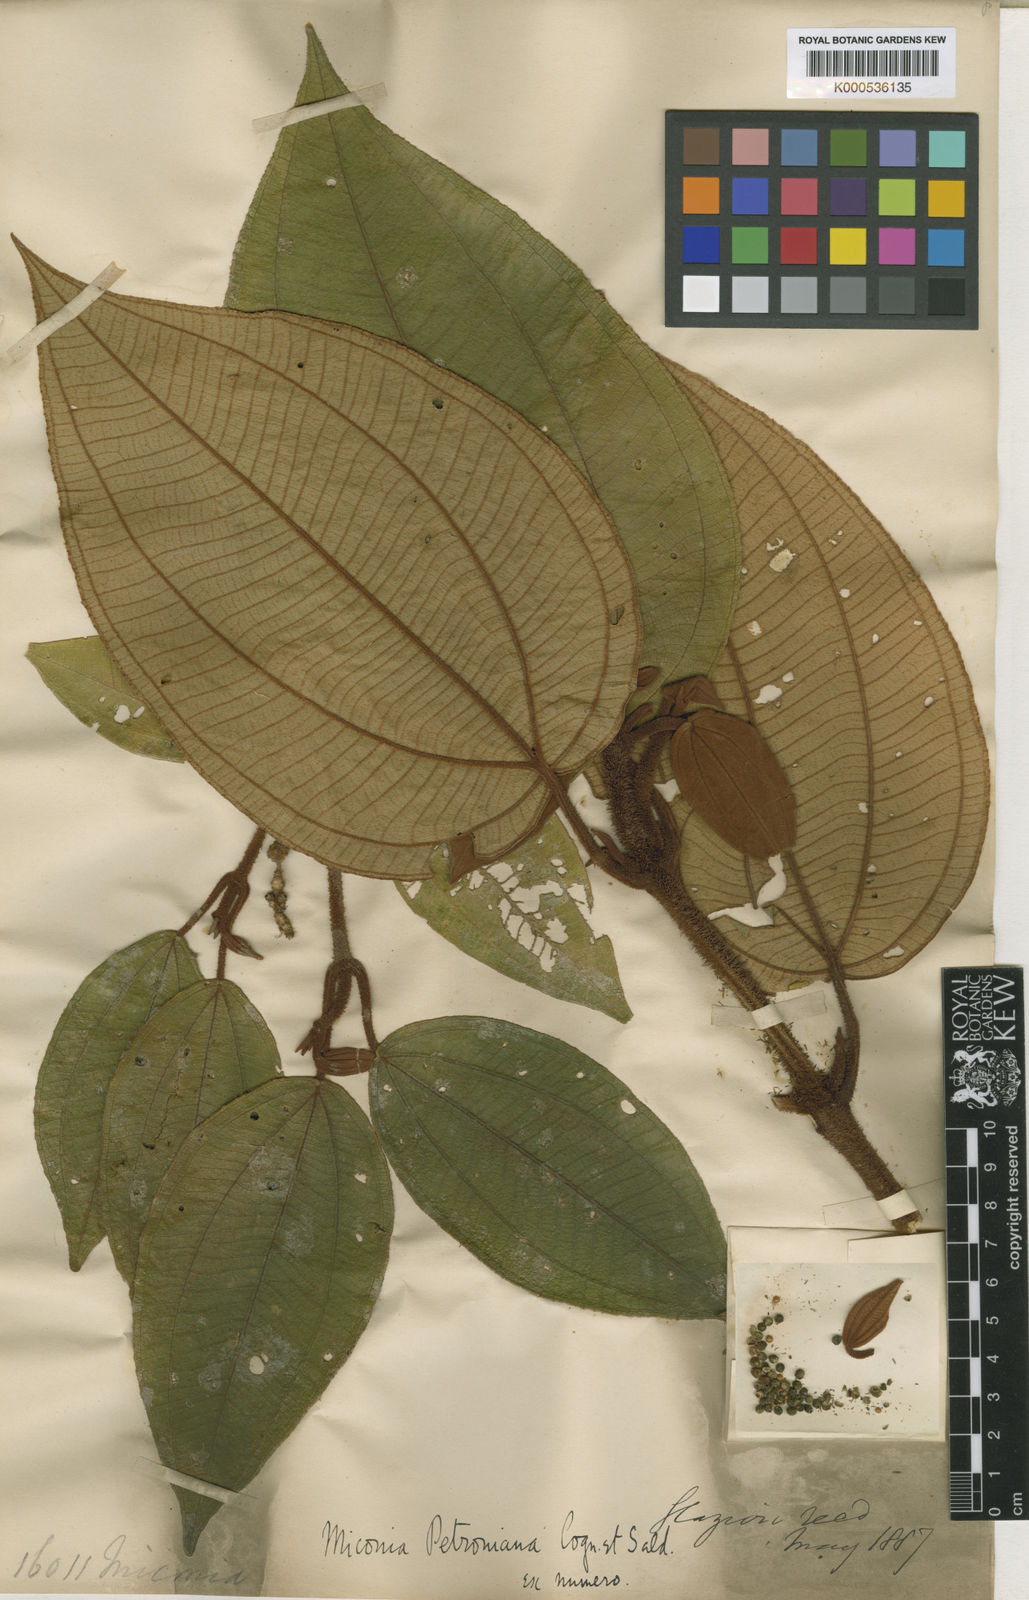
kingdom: Plantae
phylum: Tracheophyta
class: Magnoliopsida
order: Myrtales
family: Melastomataceae
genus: Miconia
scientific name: Miconia petroniana
